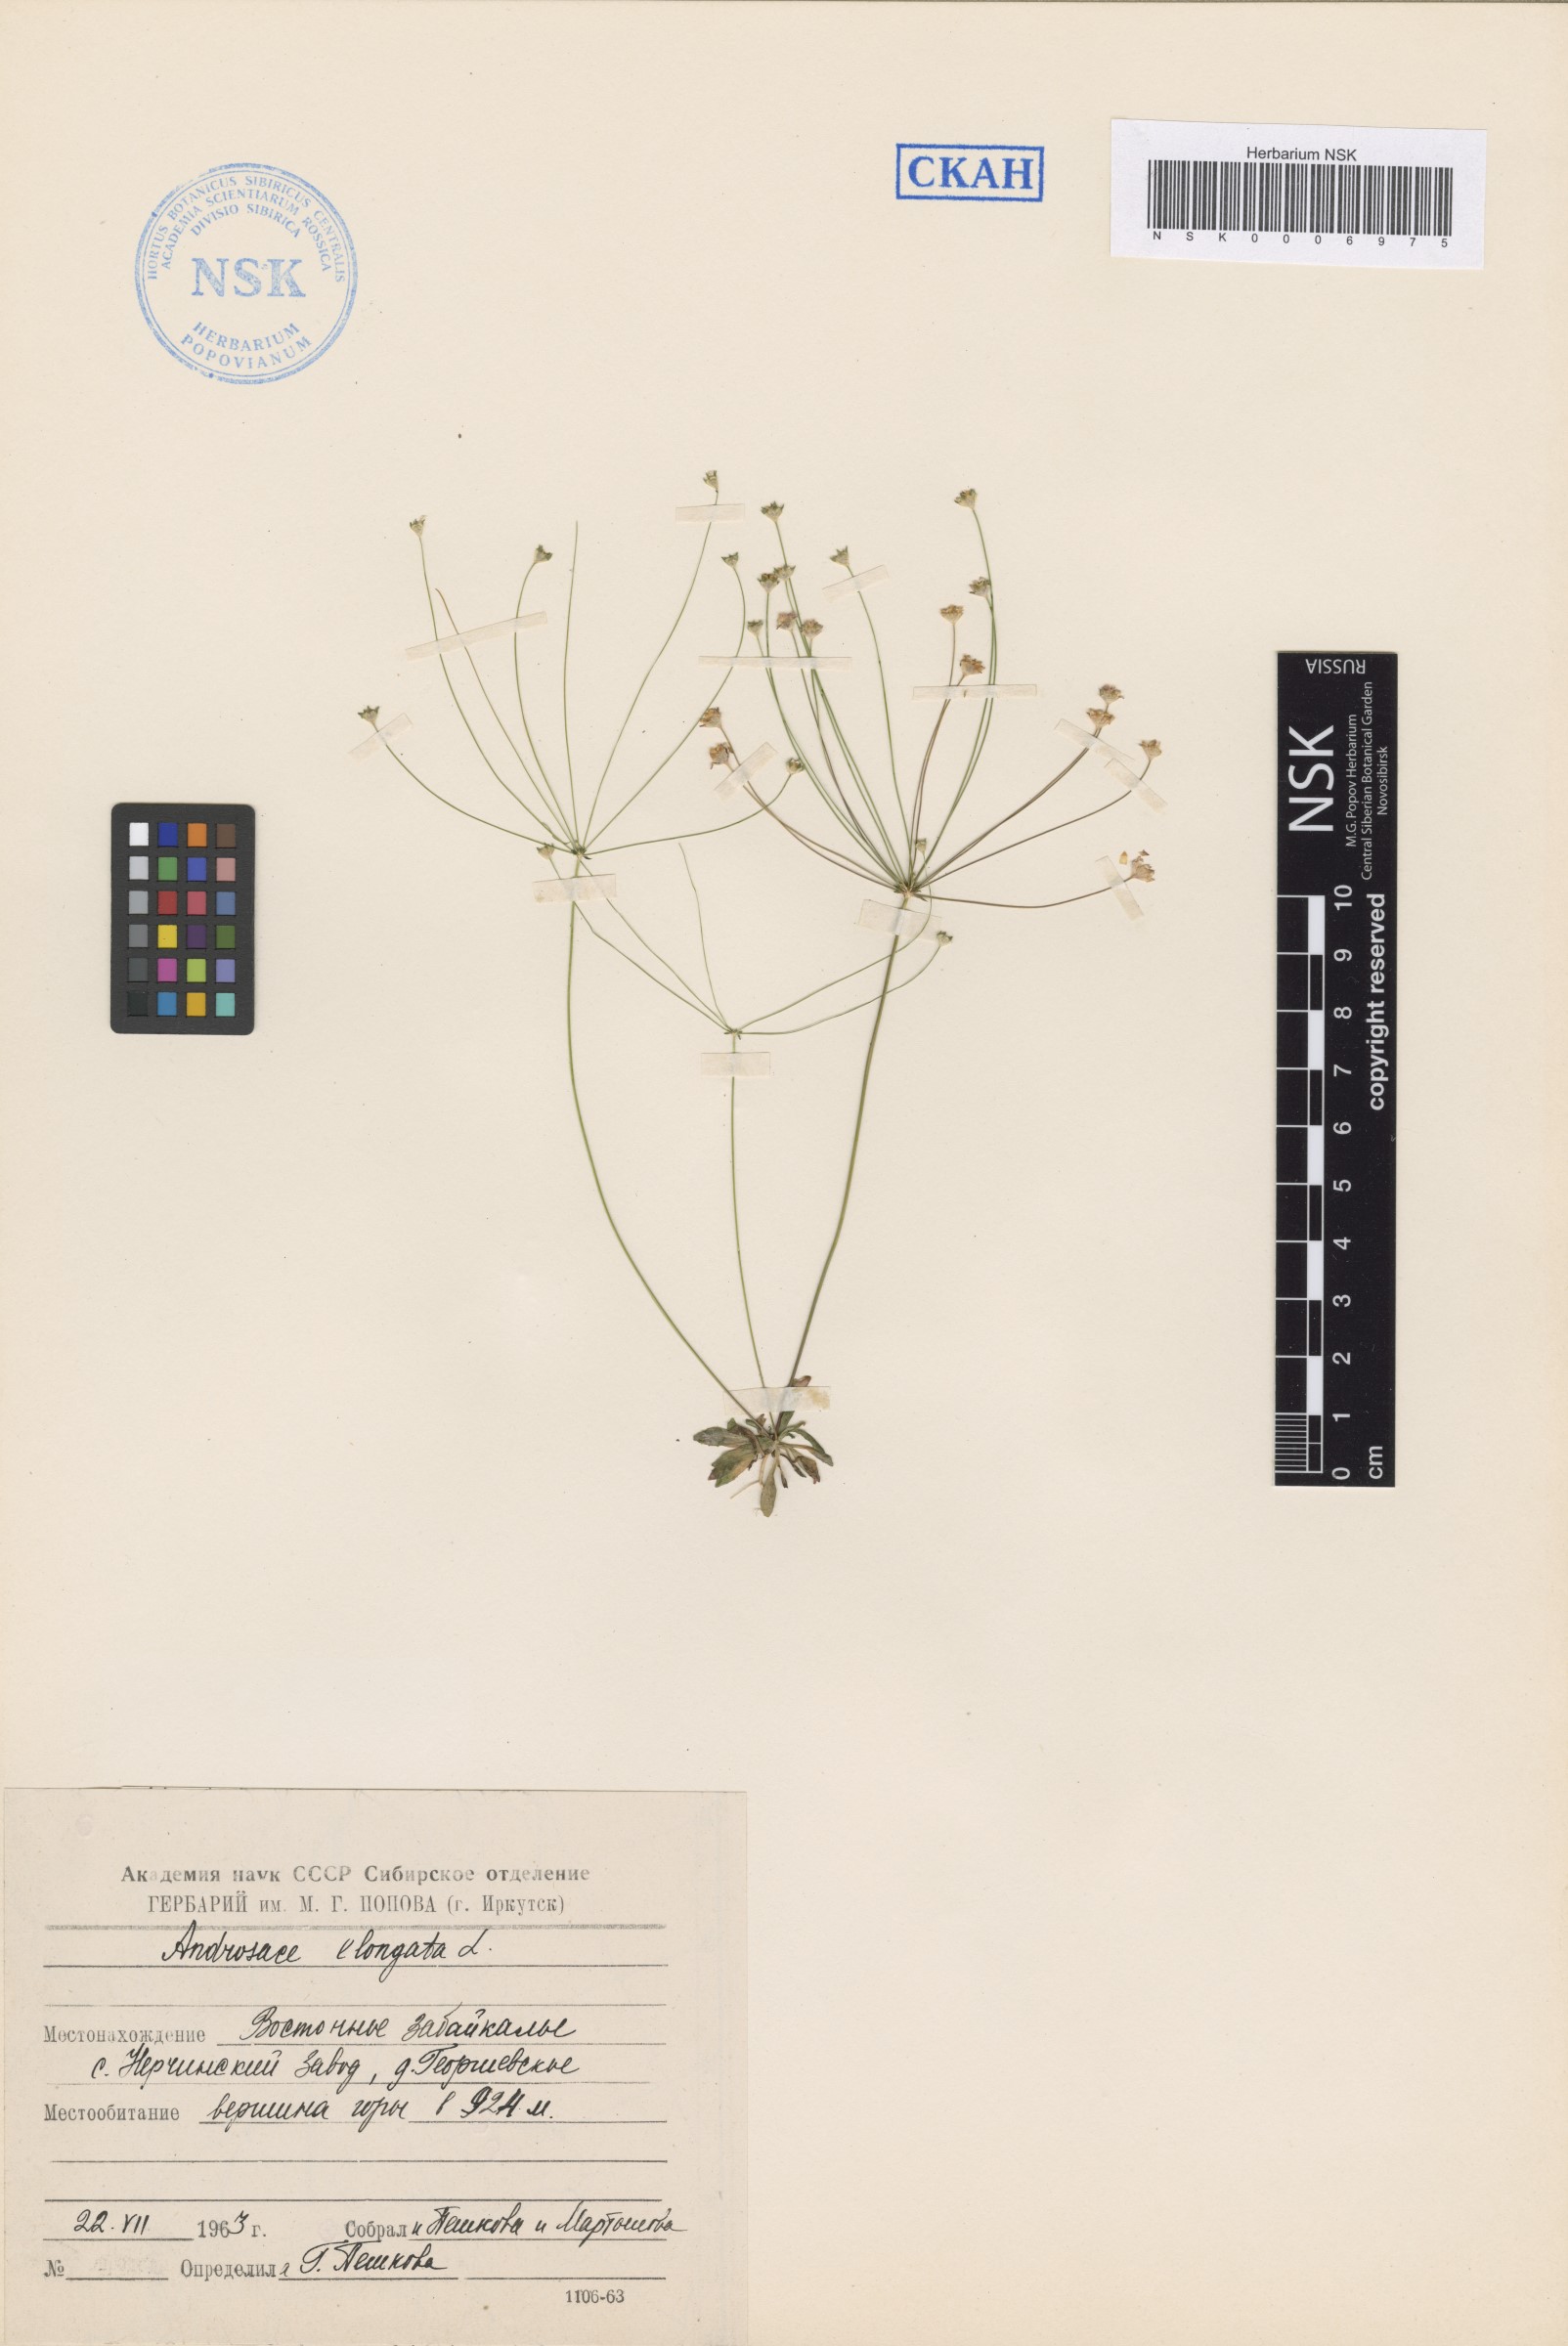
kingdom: Plantae
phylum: Tracheophyta
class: Magnoliopsida
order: Ericales
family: Primulaceae
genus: Androsace
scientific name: Androsace septentrionalis
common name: Hairy northern fairy-candelabra
